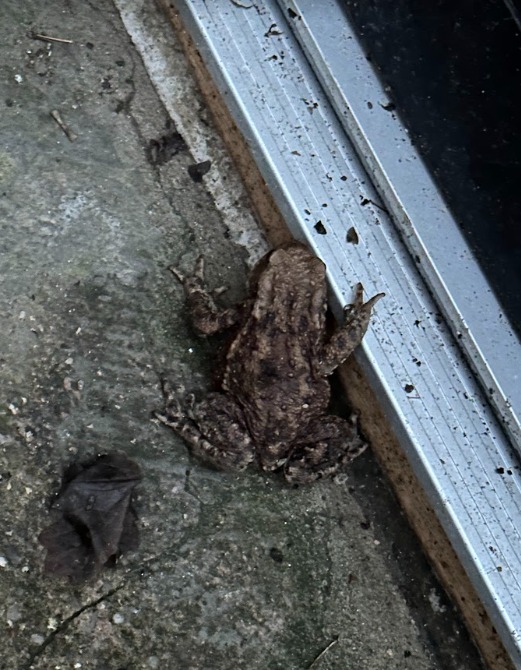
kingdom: Animalia
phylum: Chordata
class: Amphibia
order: Anura
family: Bufonidae
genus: Bufo
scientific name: Bufo bufo
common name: Skrubtudse
